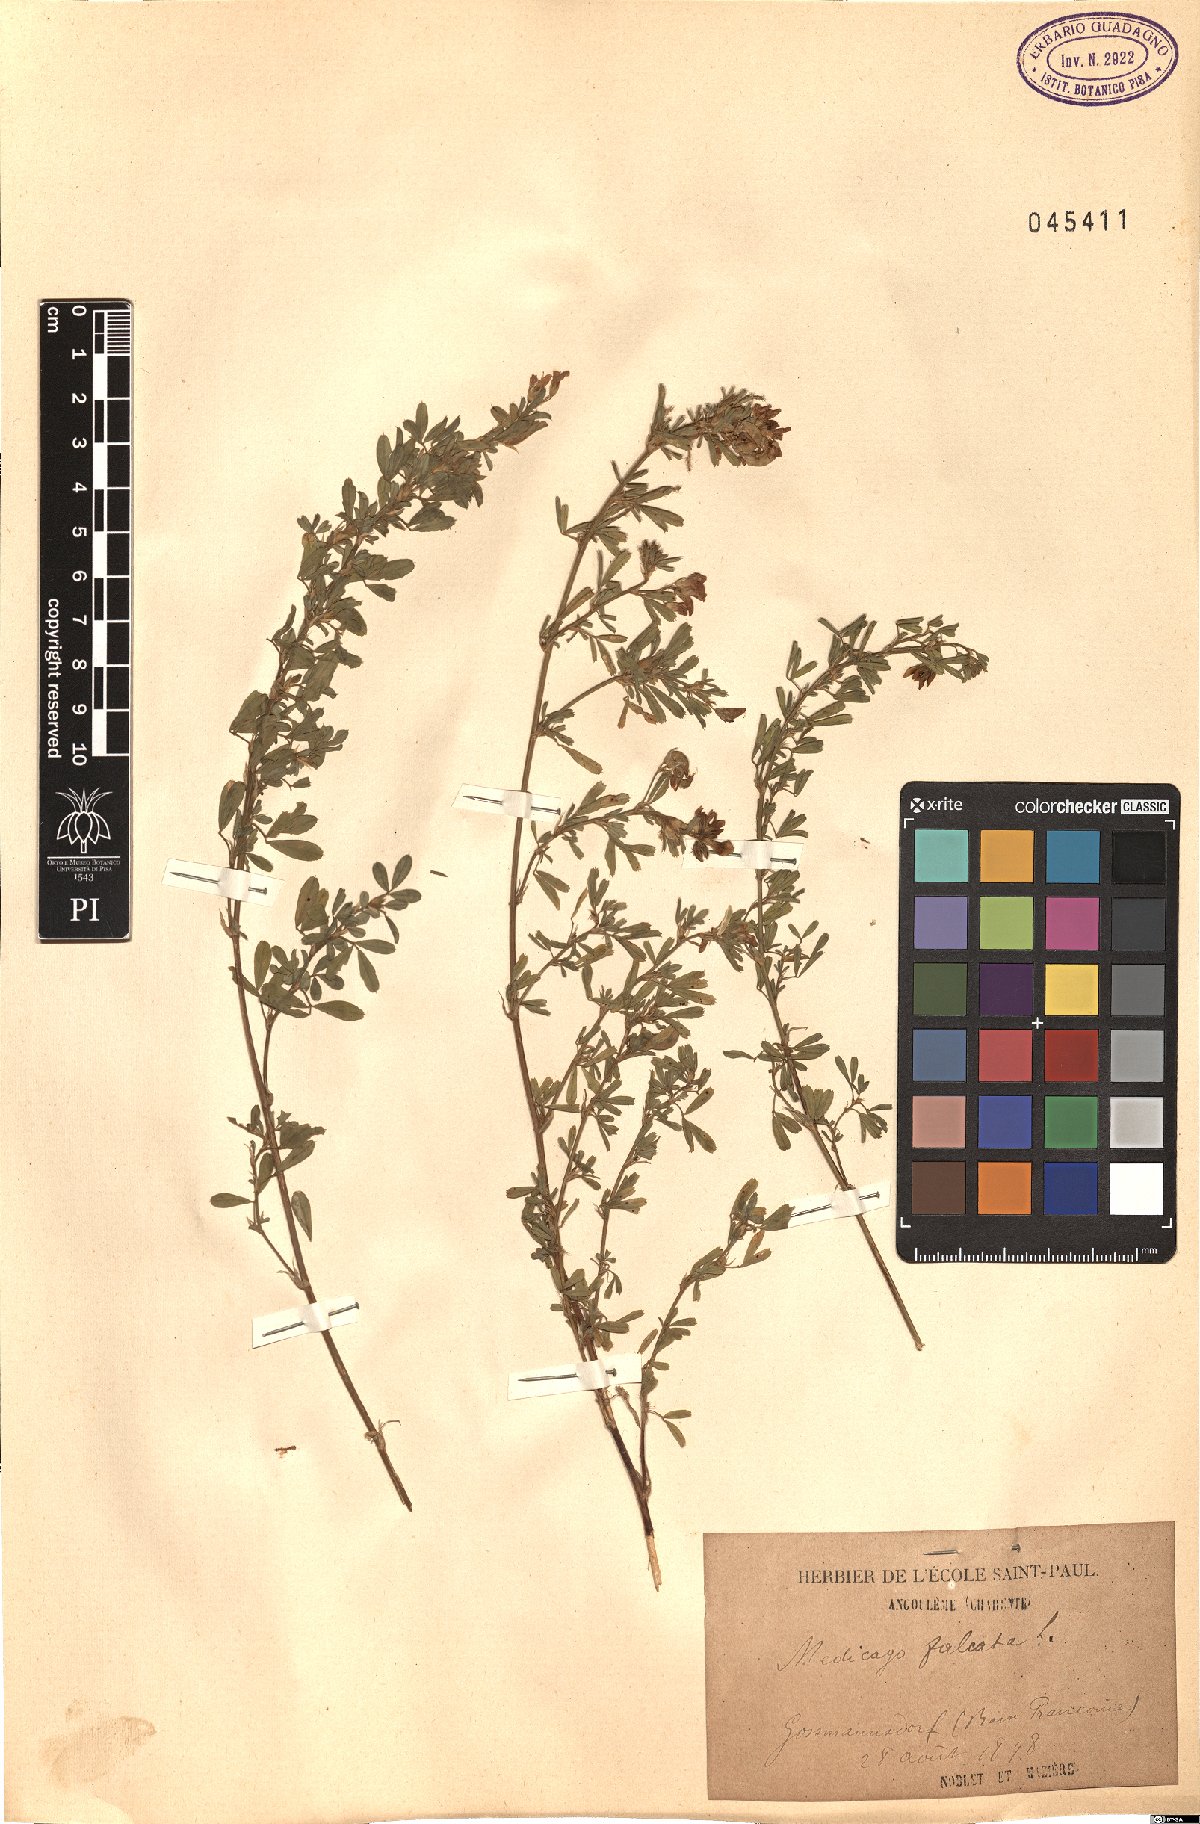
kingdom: Plantae
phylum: Tracheophyta
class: Magnoliopsida
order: Fabales
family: Fabaceae
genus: Medicago
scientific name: Medicago falcata
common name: Sickle medick
